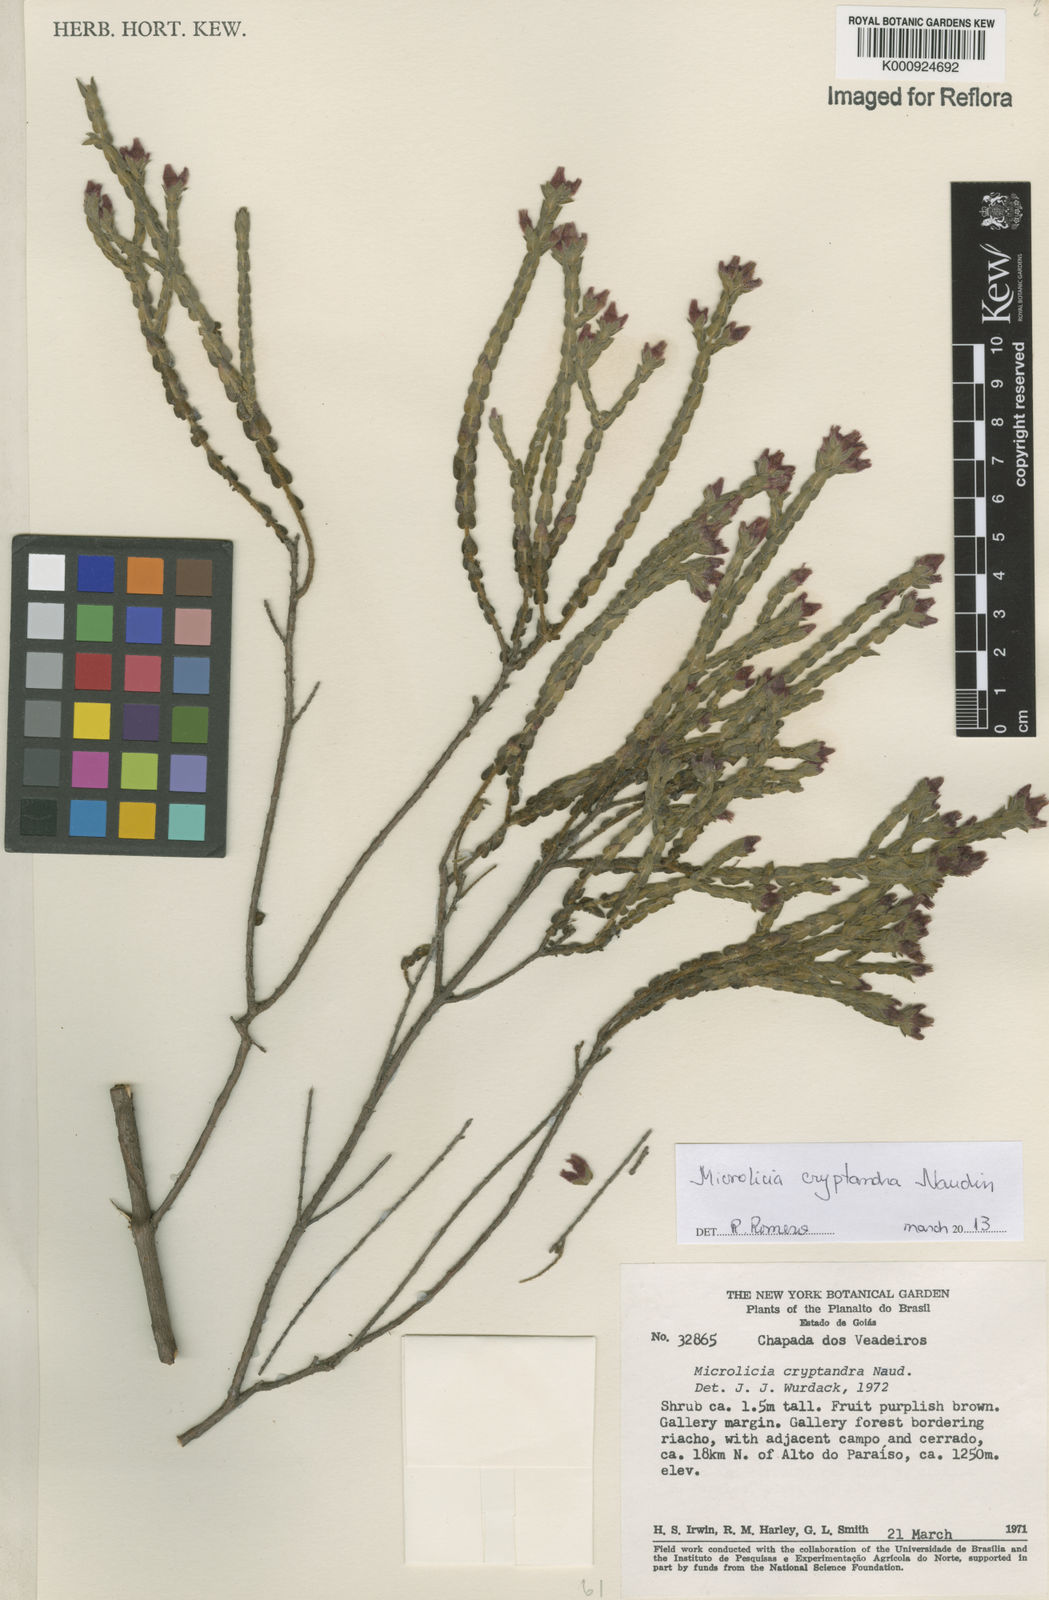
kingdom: Plantae
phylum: Tracheophyta
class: Magnoliopsida
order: Myrtales
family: Melastomataceae
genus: Microlicia
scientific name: Microlicia cryptandra
